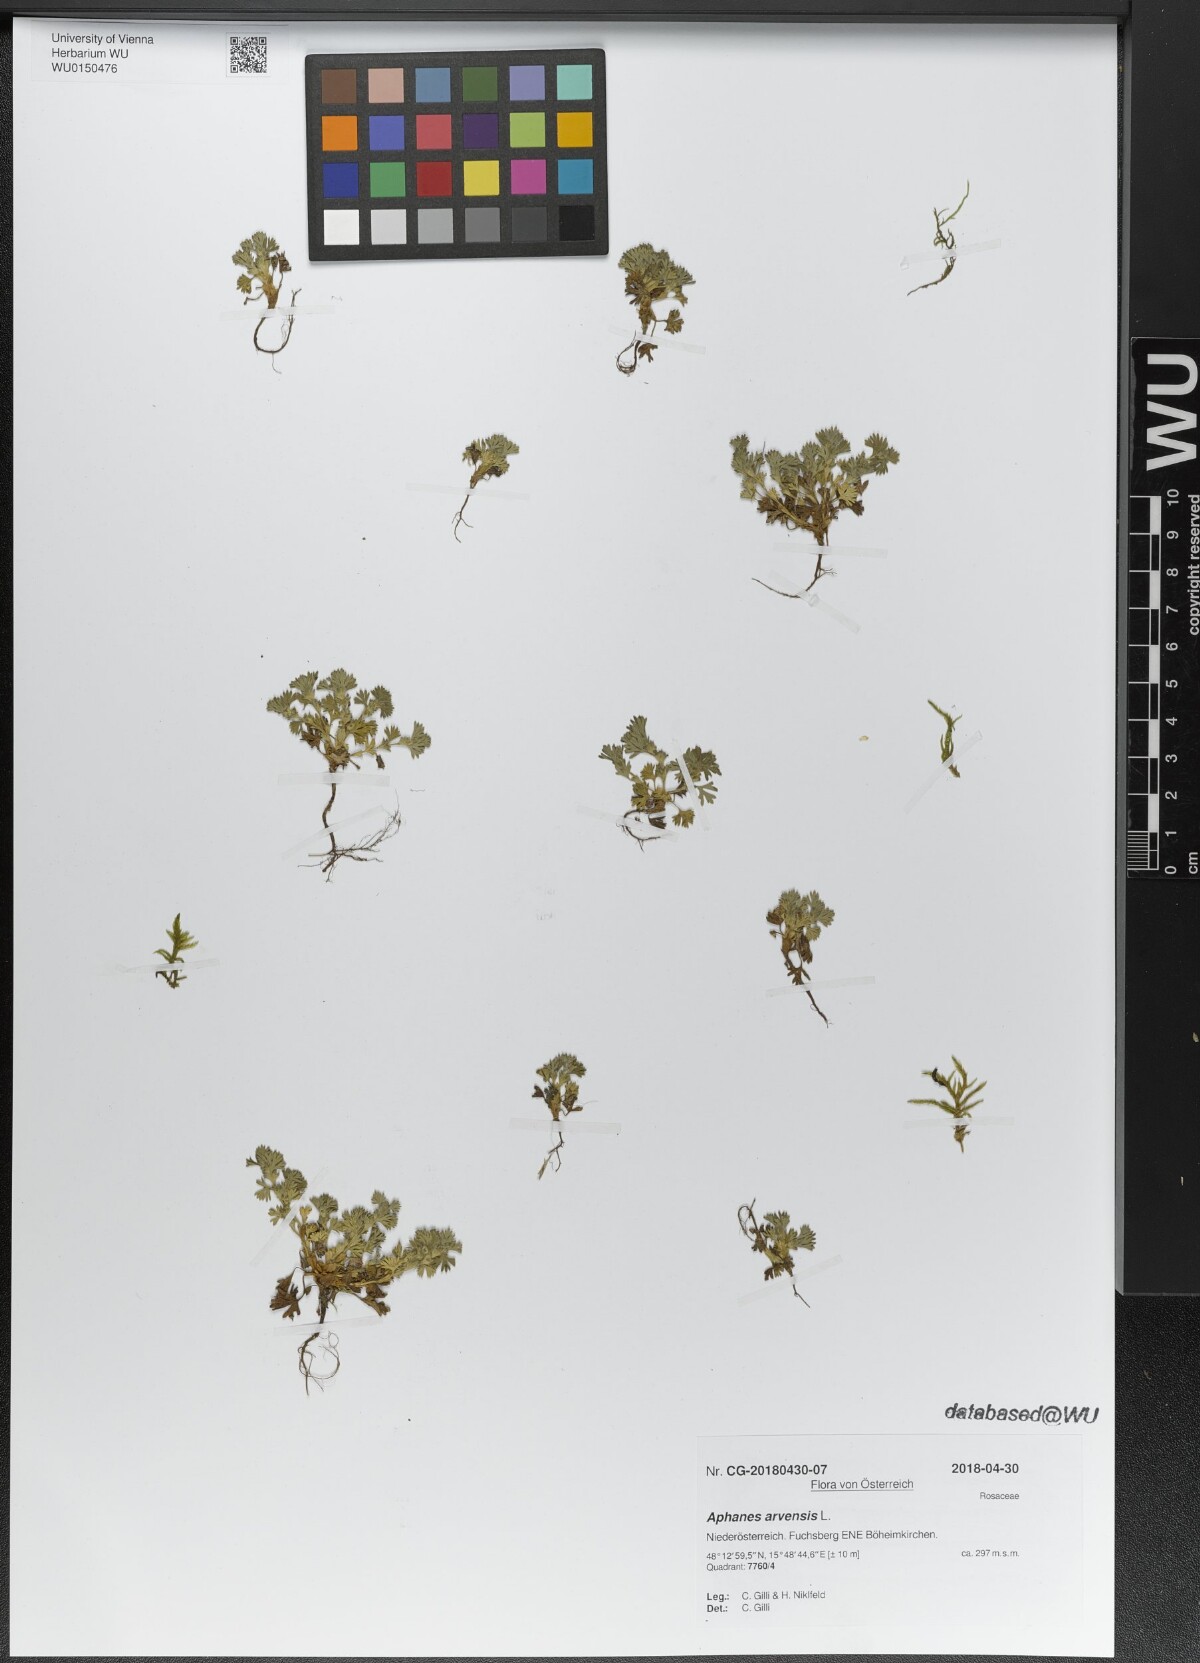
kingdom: Plantae
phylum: Tracheophyta
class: Magnoliopsida
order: Rosales
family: Rosaceae
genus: Aphanes
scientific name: Aphanes arvensis
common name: Parsley-piert
